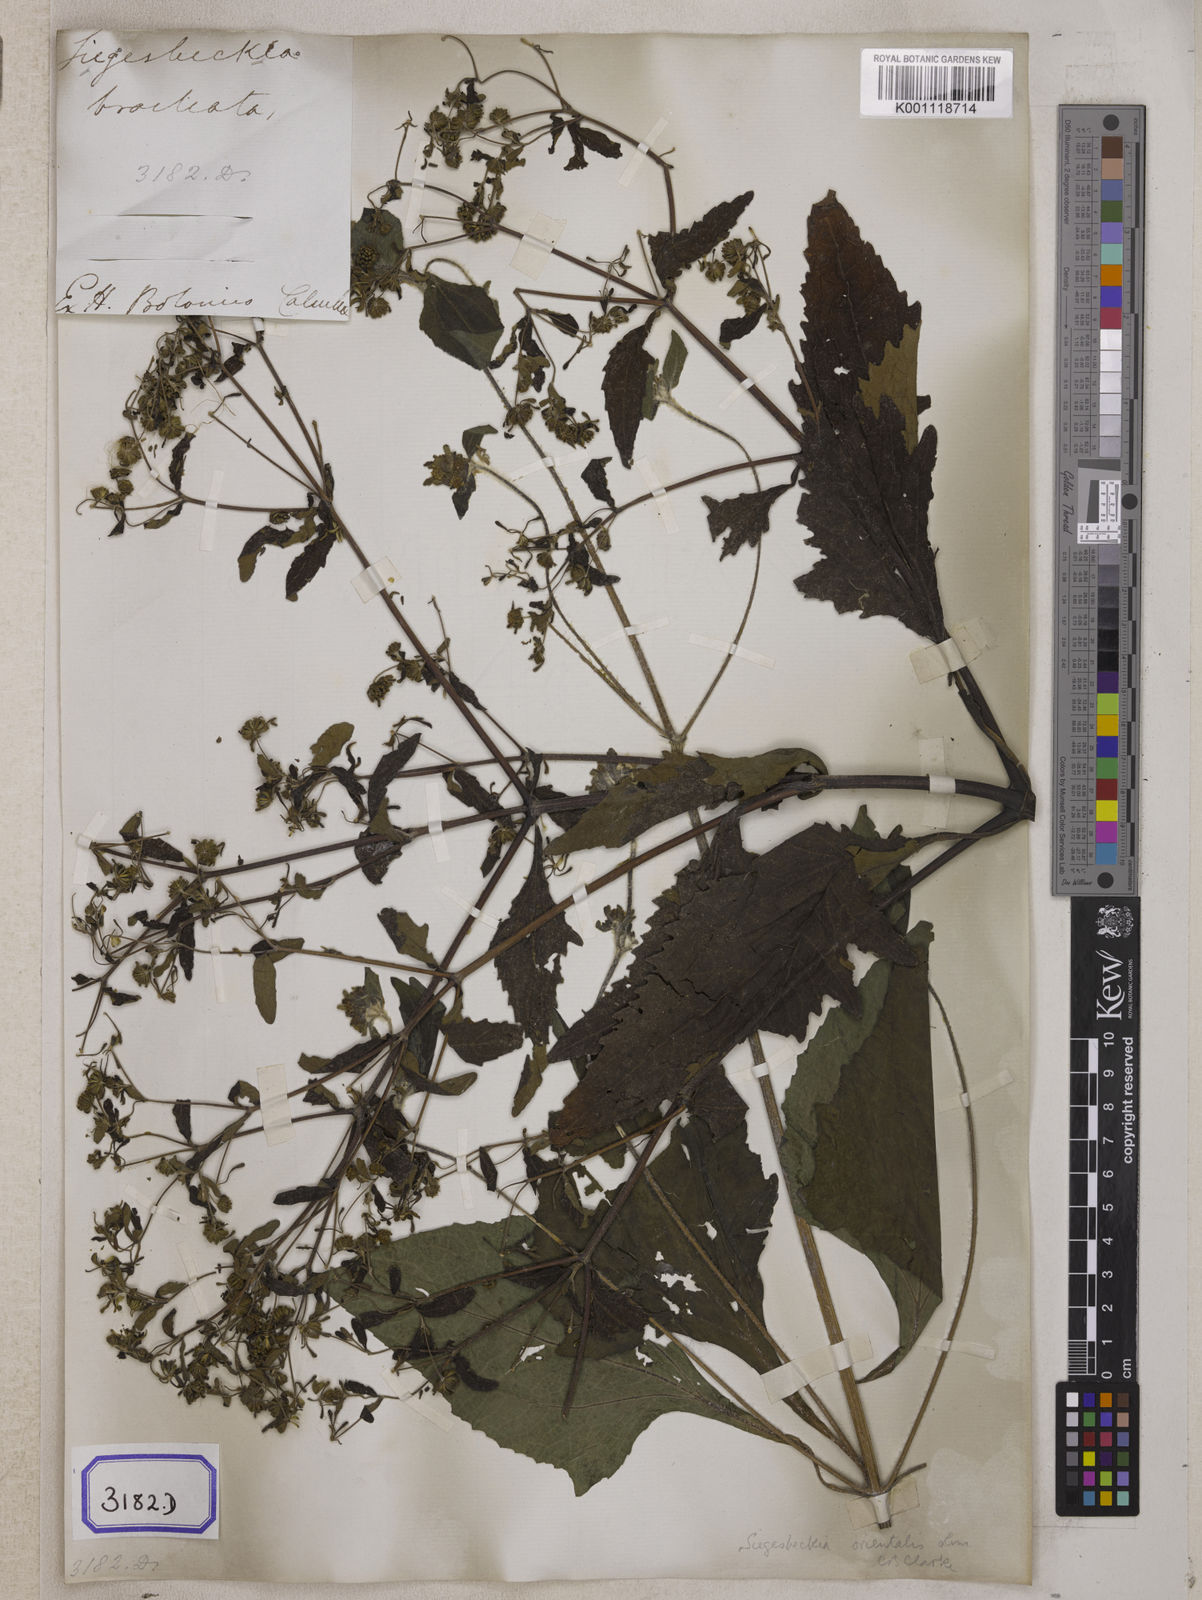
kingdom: Plantae
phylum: Tracheophyta
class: Magnoliopsida
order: Asterales
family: Asteraceae
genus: Sigesbeckia
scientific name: Sigesbeckia orientalis
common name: Eastern st paul's-wort
